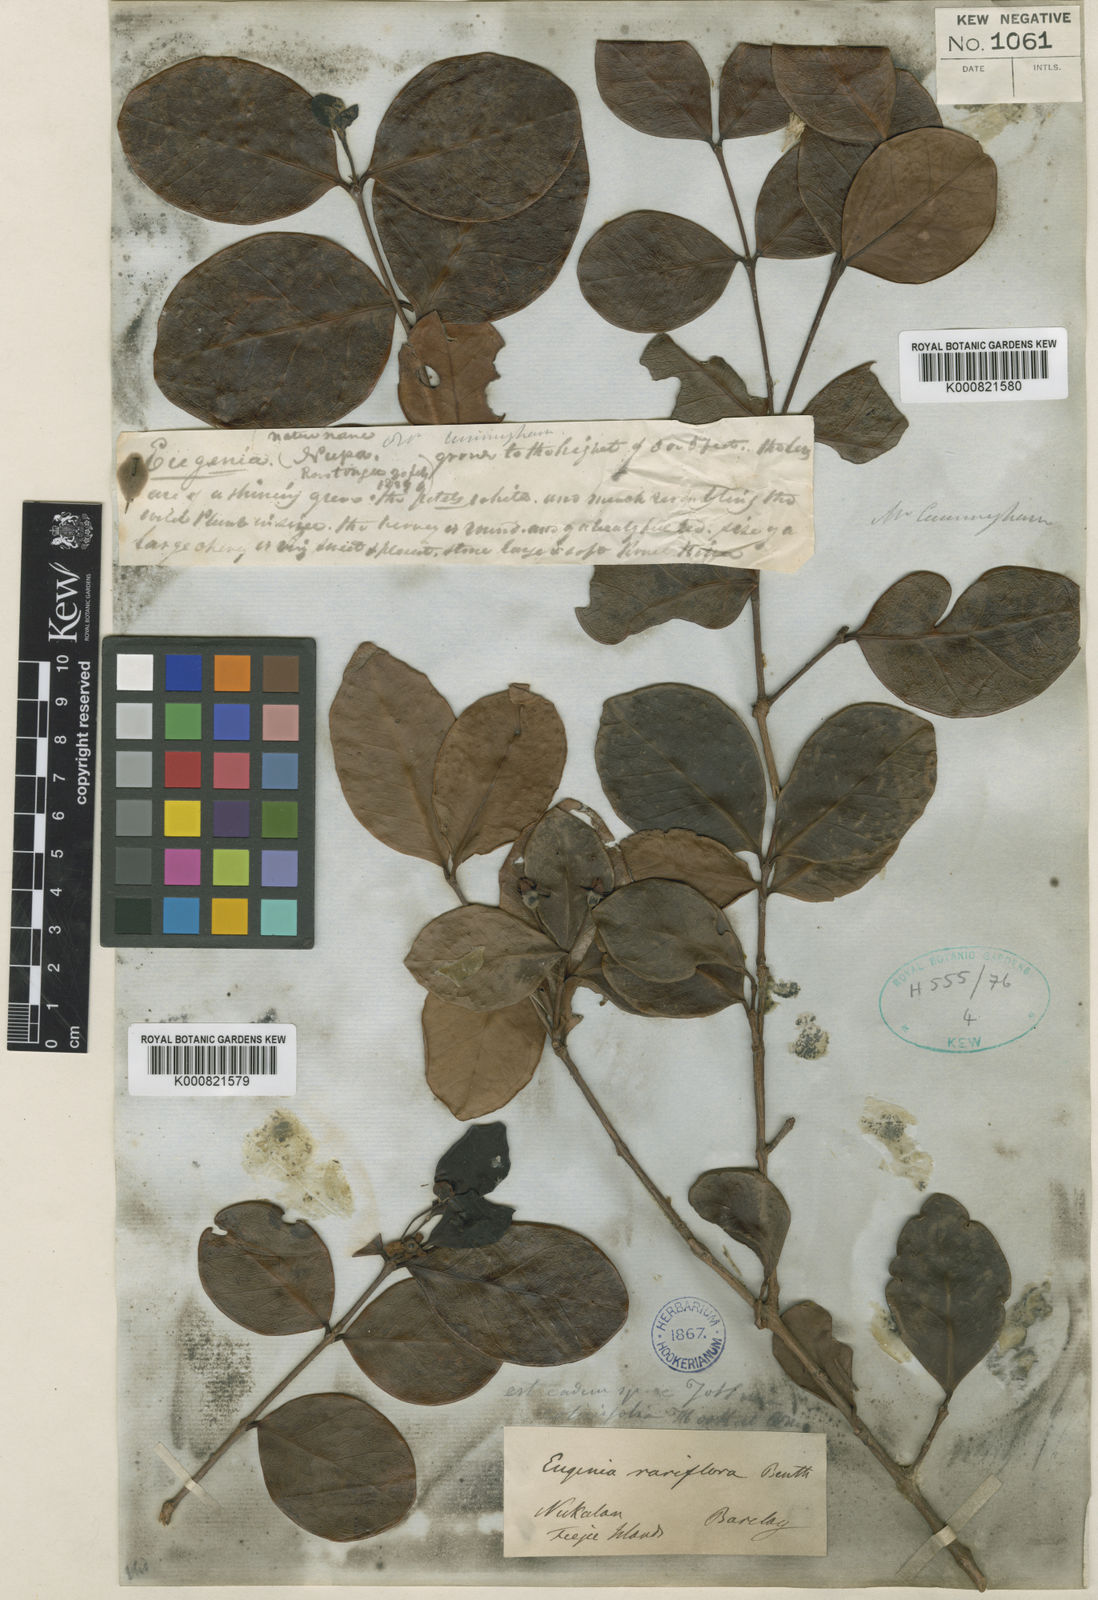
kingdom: Plantae
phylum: Tracheophyta
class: Magnoliopsida
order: Myrtales
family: Myrtaceae
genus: Eugenia
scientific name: Eugenia reinwardtiana
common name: Cedar bay-cherry
